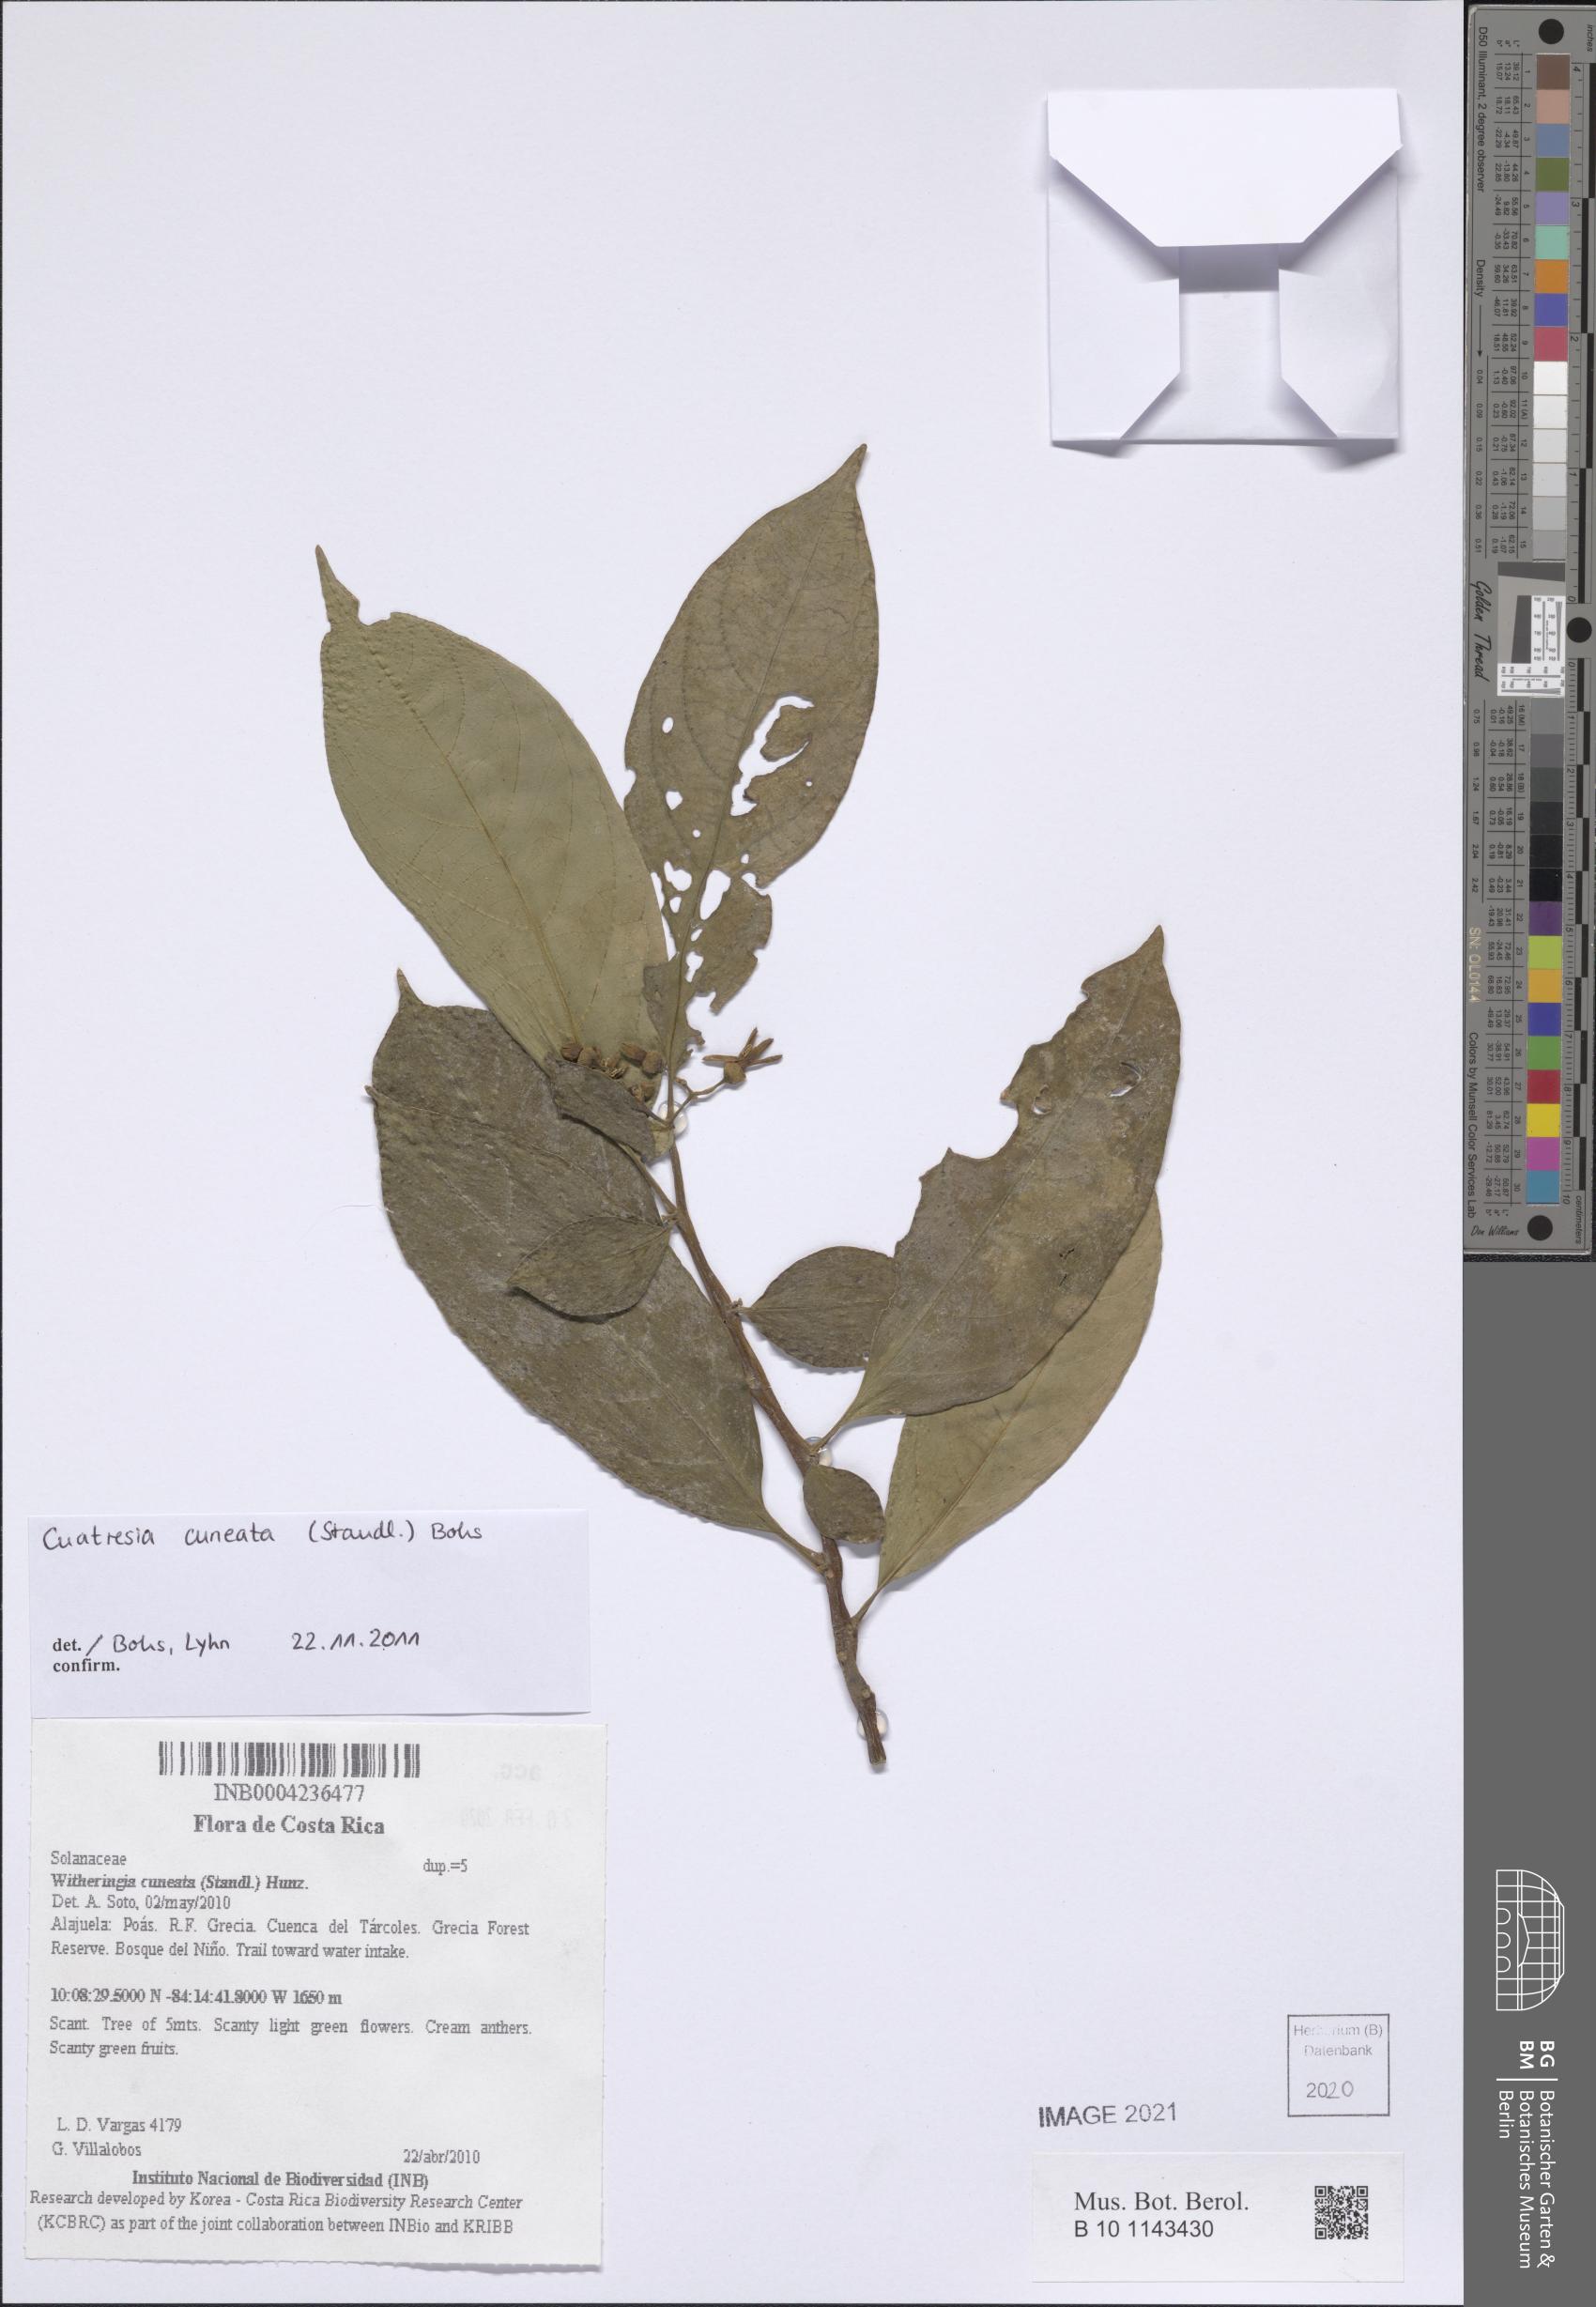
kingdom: Plantae
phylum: Tracheophyta
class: Magnoliopsida
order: Solanales
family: Solanaceae
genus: Cuatresia
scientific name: Cuatresia cuneata
